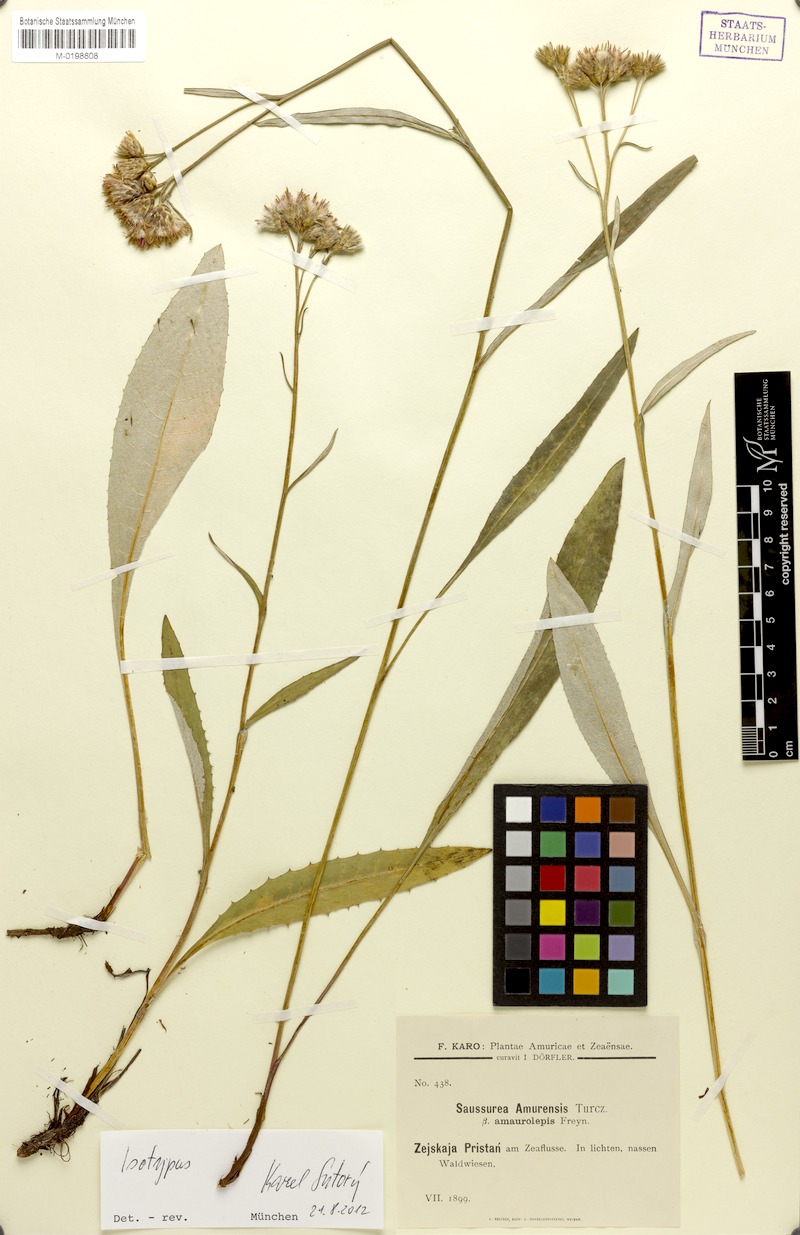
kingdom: Plantae
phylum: Tracheophyta
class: Magnoliopsida
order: Asterales
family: Asteraceae
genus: Saussurea
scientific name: Saussurea amurensis
